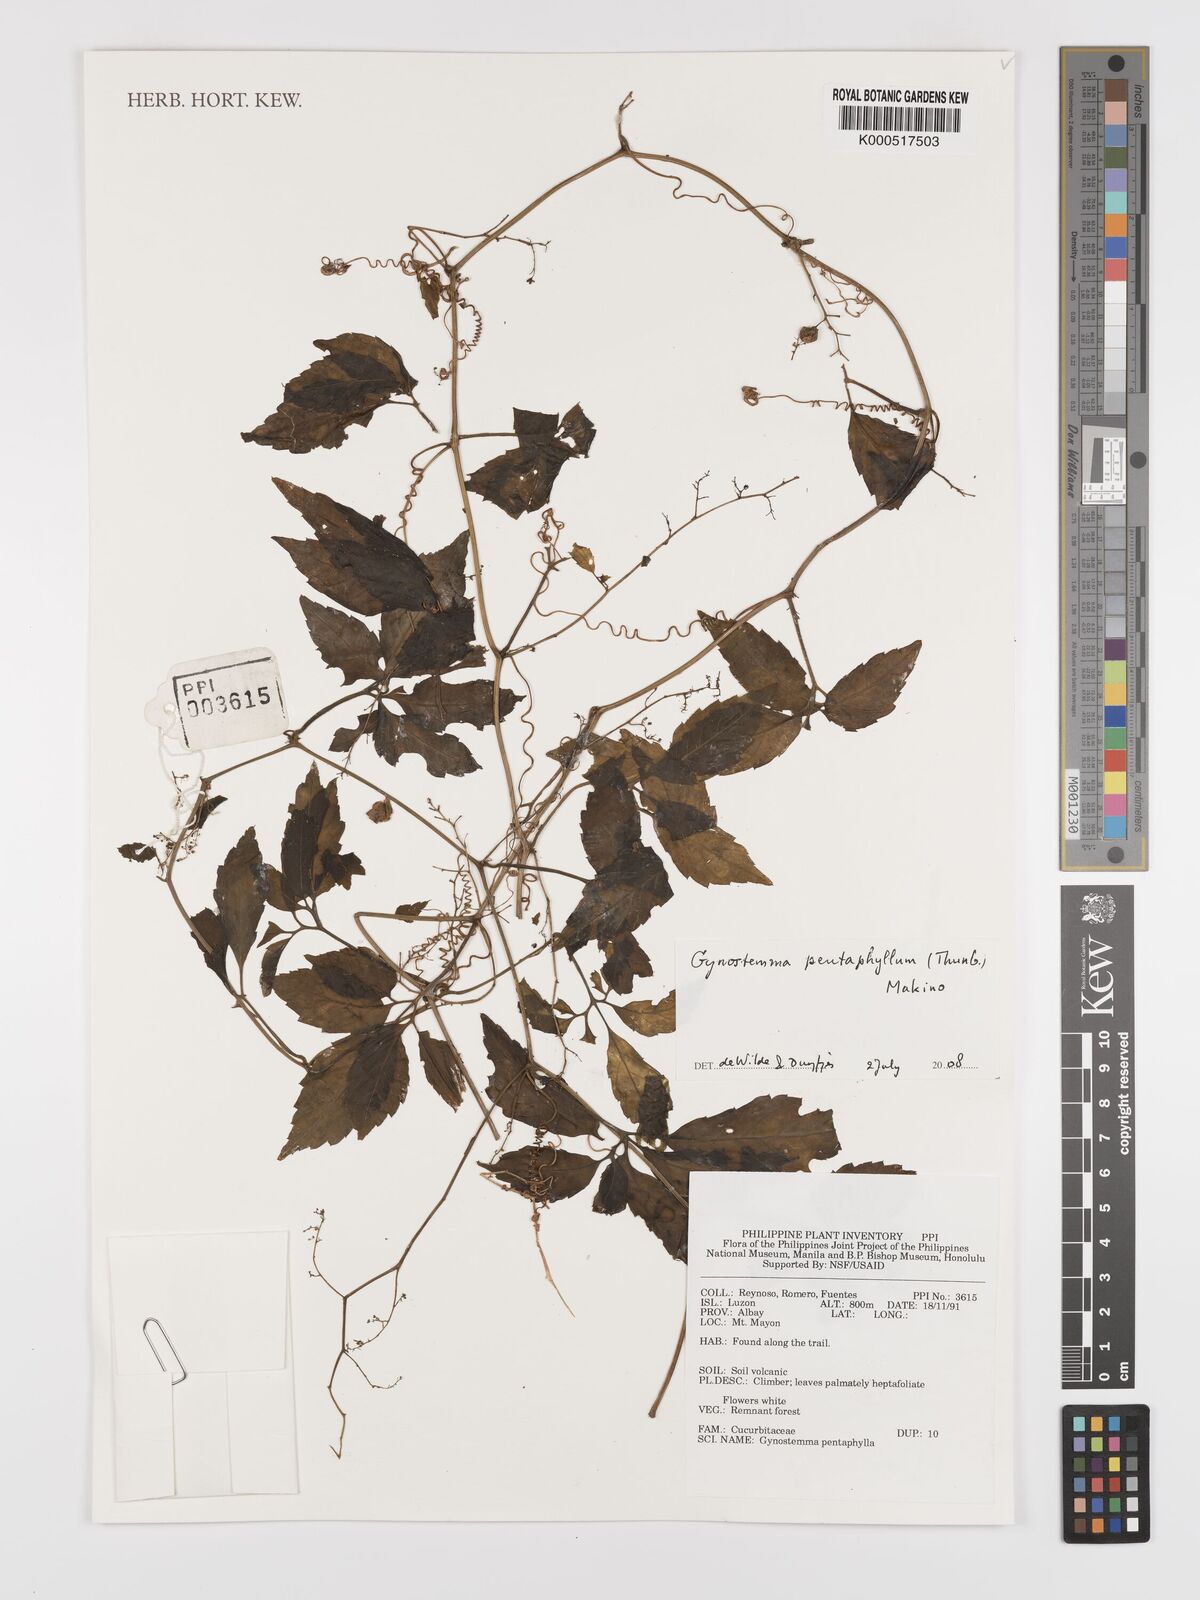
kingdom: Plantae
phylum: Tracheophyta
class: Magnoliopsida
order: Cucurbitales
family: Cucurbitaceae
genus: Gynostemma
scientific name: Gynostemma pentaphyllum
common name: Gynostemma
